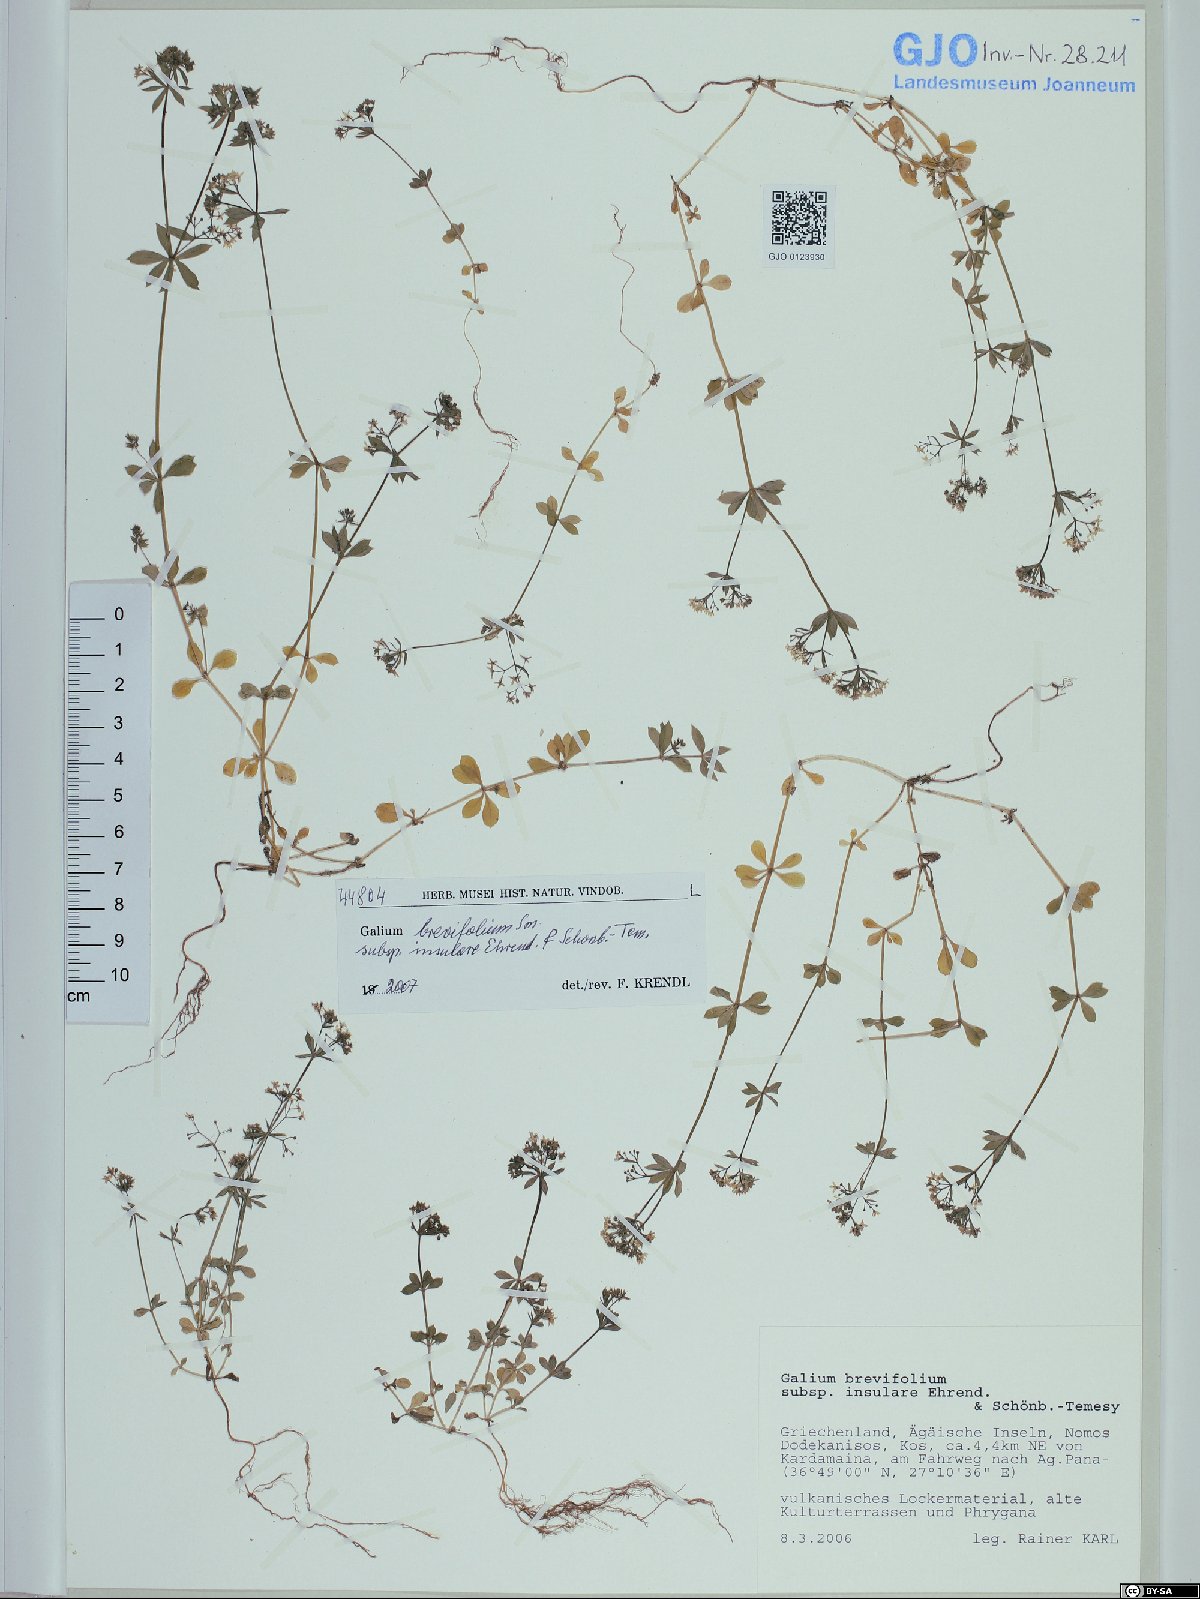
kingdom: Plantae
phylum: Tracheophyta
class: Magnoliopsida
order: Gentianales
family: Rubiaceae
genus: Galium
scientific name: Galium brevifolium
